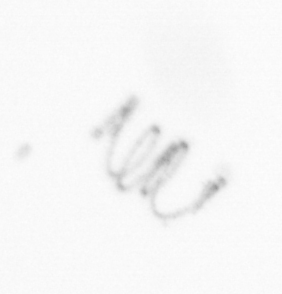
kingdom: Chromista
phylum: Ochrophyta
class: Bacillariophyceae
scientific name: Bacillariophyceae
